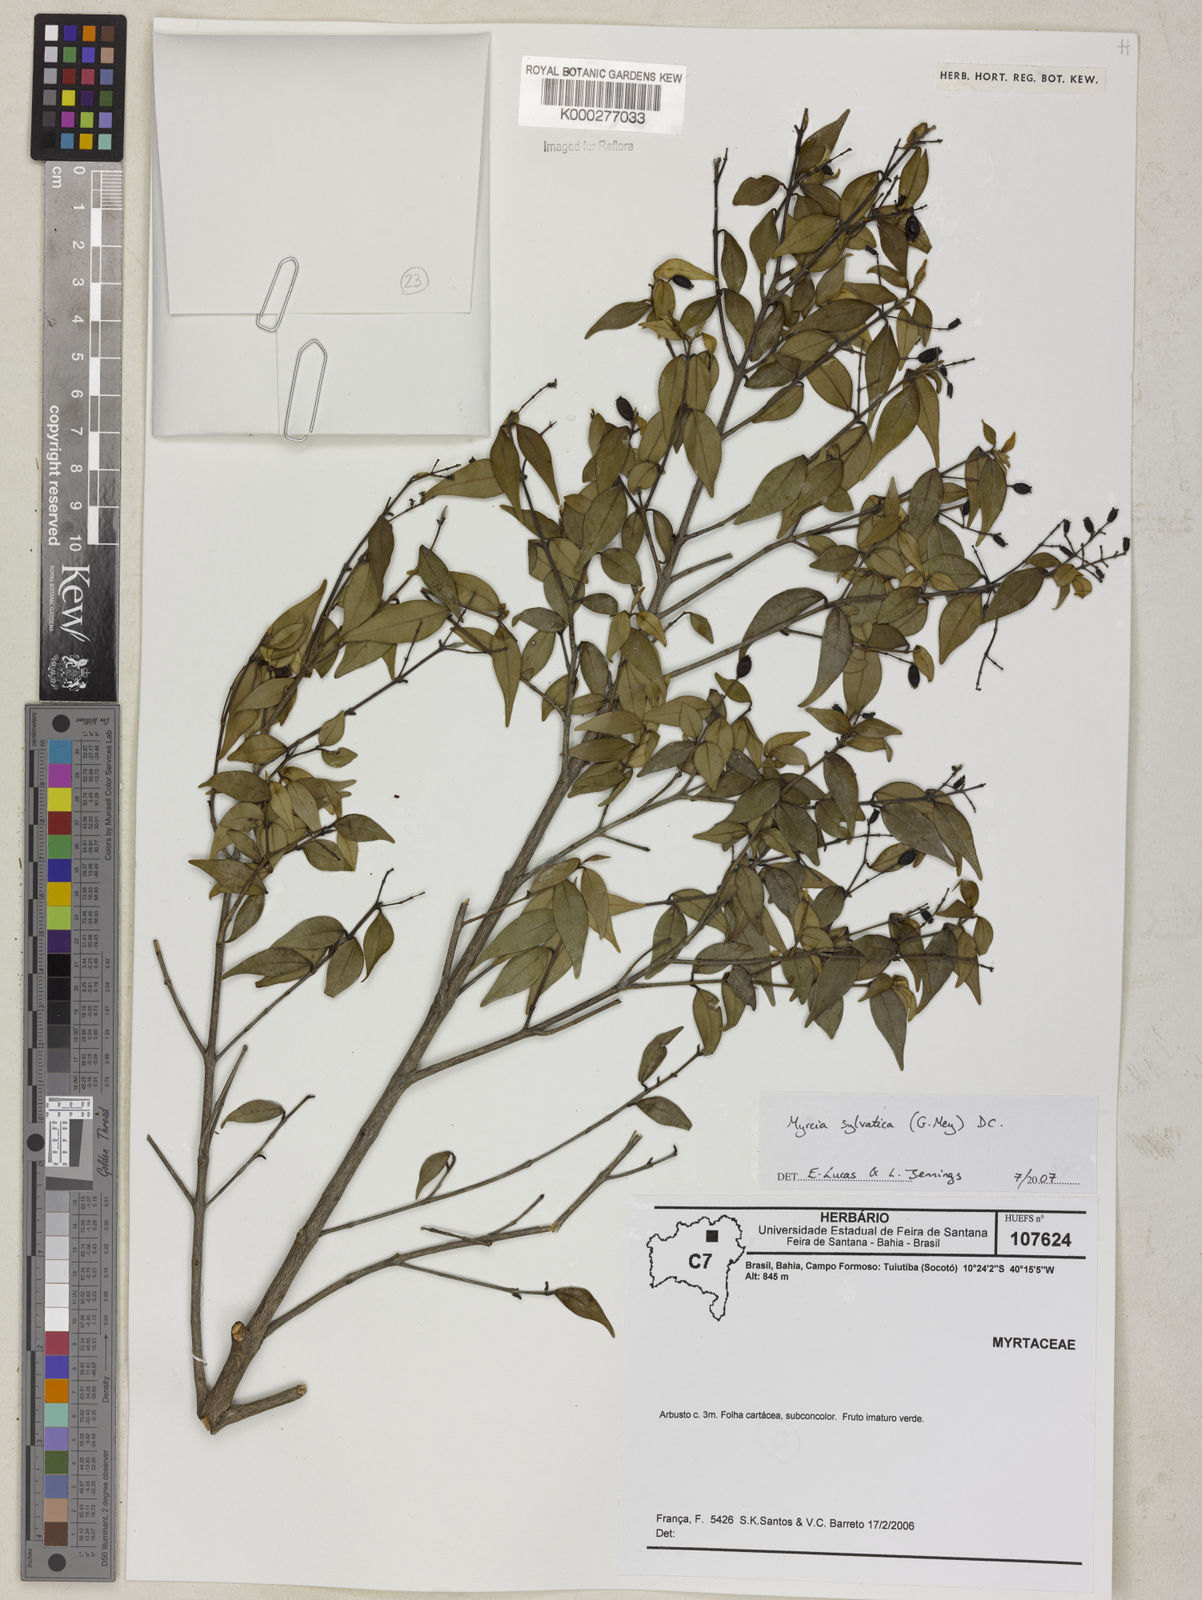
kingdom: Plantae
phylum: Tracheophyta
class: Magnoliopsida
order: Myrtales
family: Myrtaceae
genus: Myrcia
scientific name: Myrcia sylvatica
